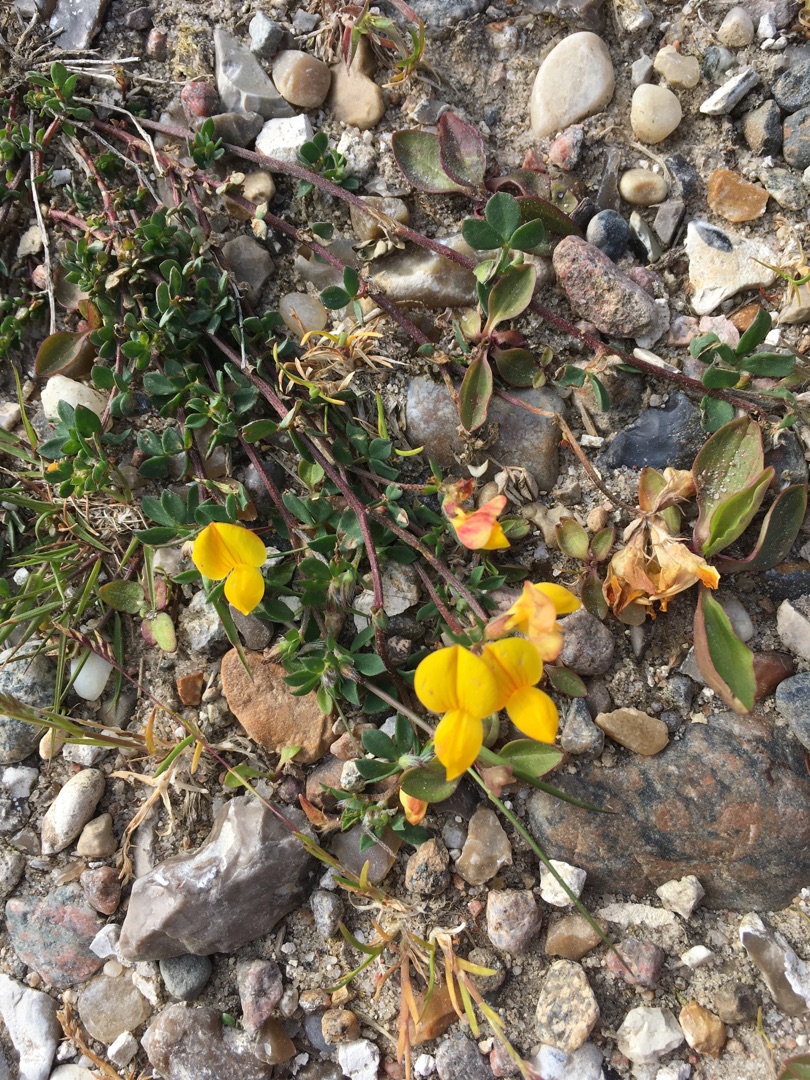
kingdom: Plantae
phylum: Tracheophyta
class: Magnoliopsida
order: Fabales
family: Fabaceae
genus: Lotus
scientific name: Lotus corniculatus
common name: Almindelig kællingetand
